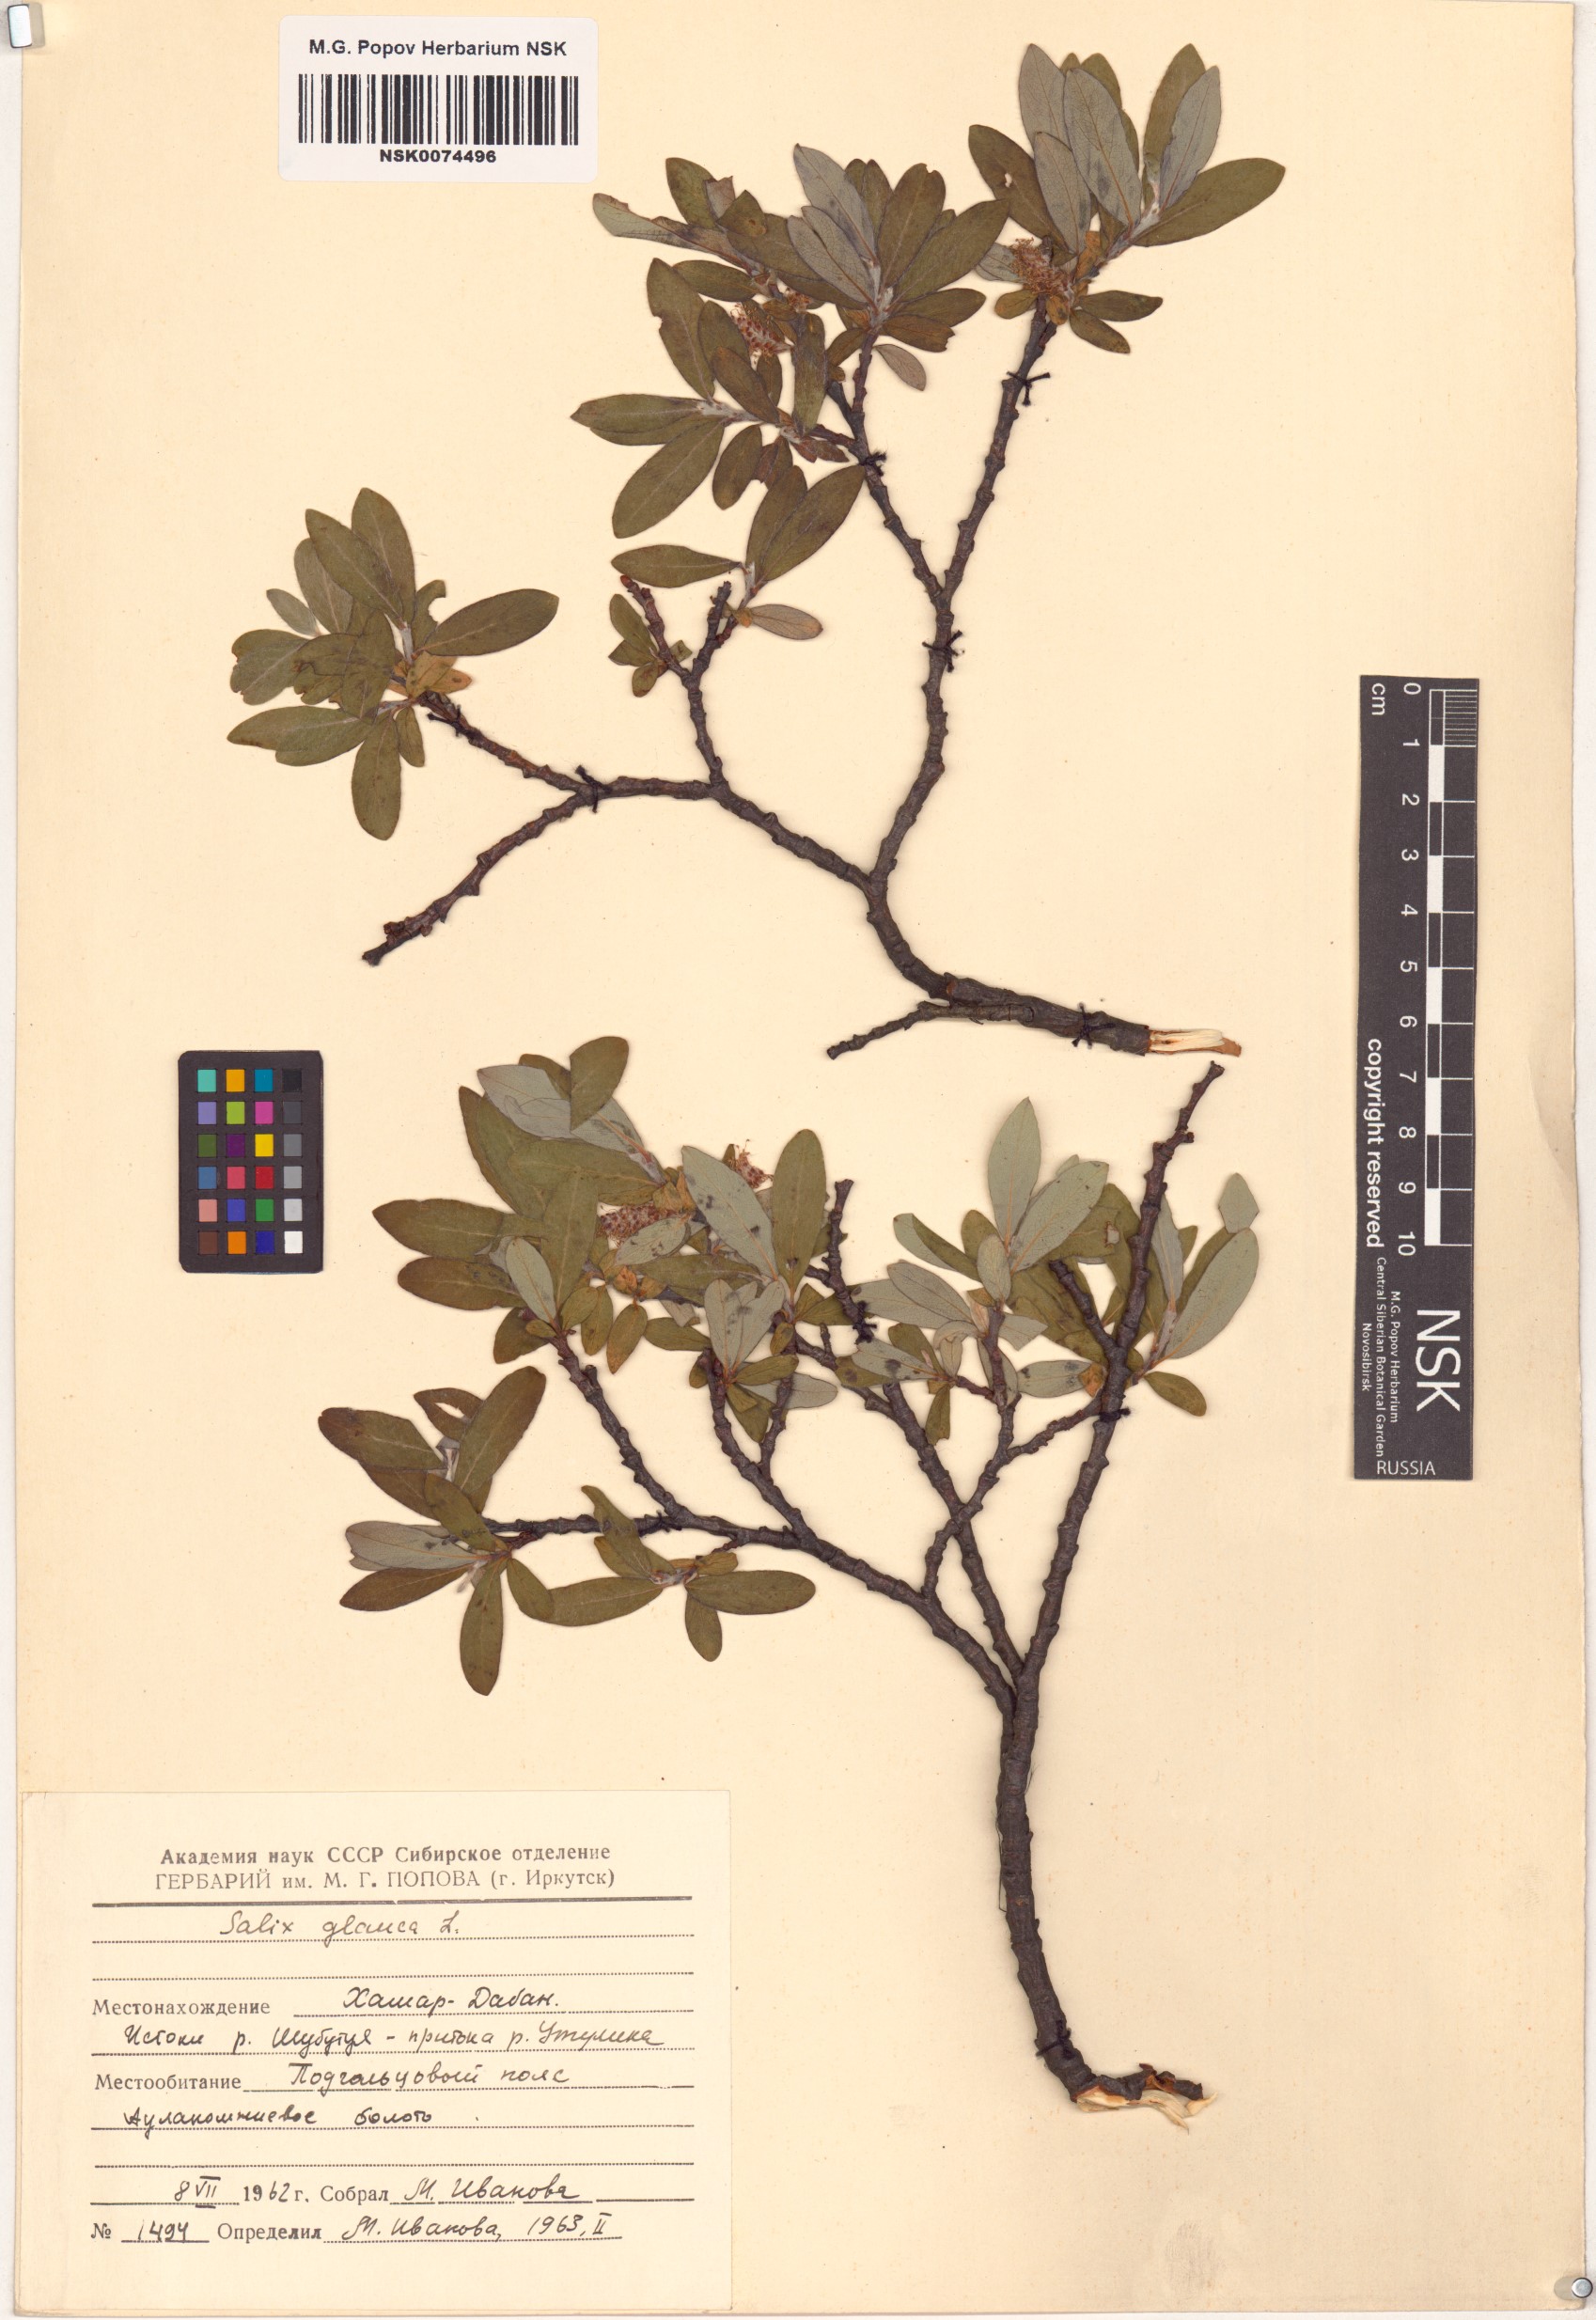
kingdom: Plantae
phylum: Tracheophyta
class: Magnoliopsida
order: Malpighiales
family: Salicaceae
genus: Salix
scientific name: Salix glauca
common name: Glaucous willow
